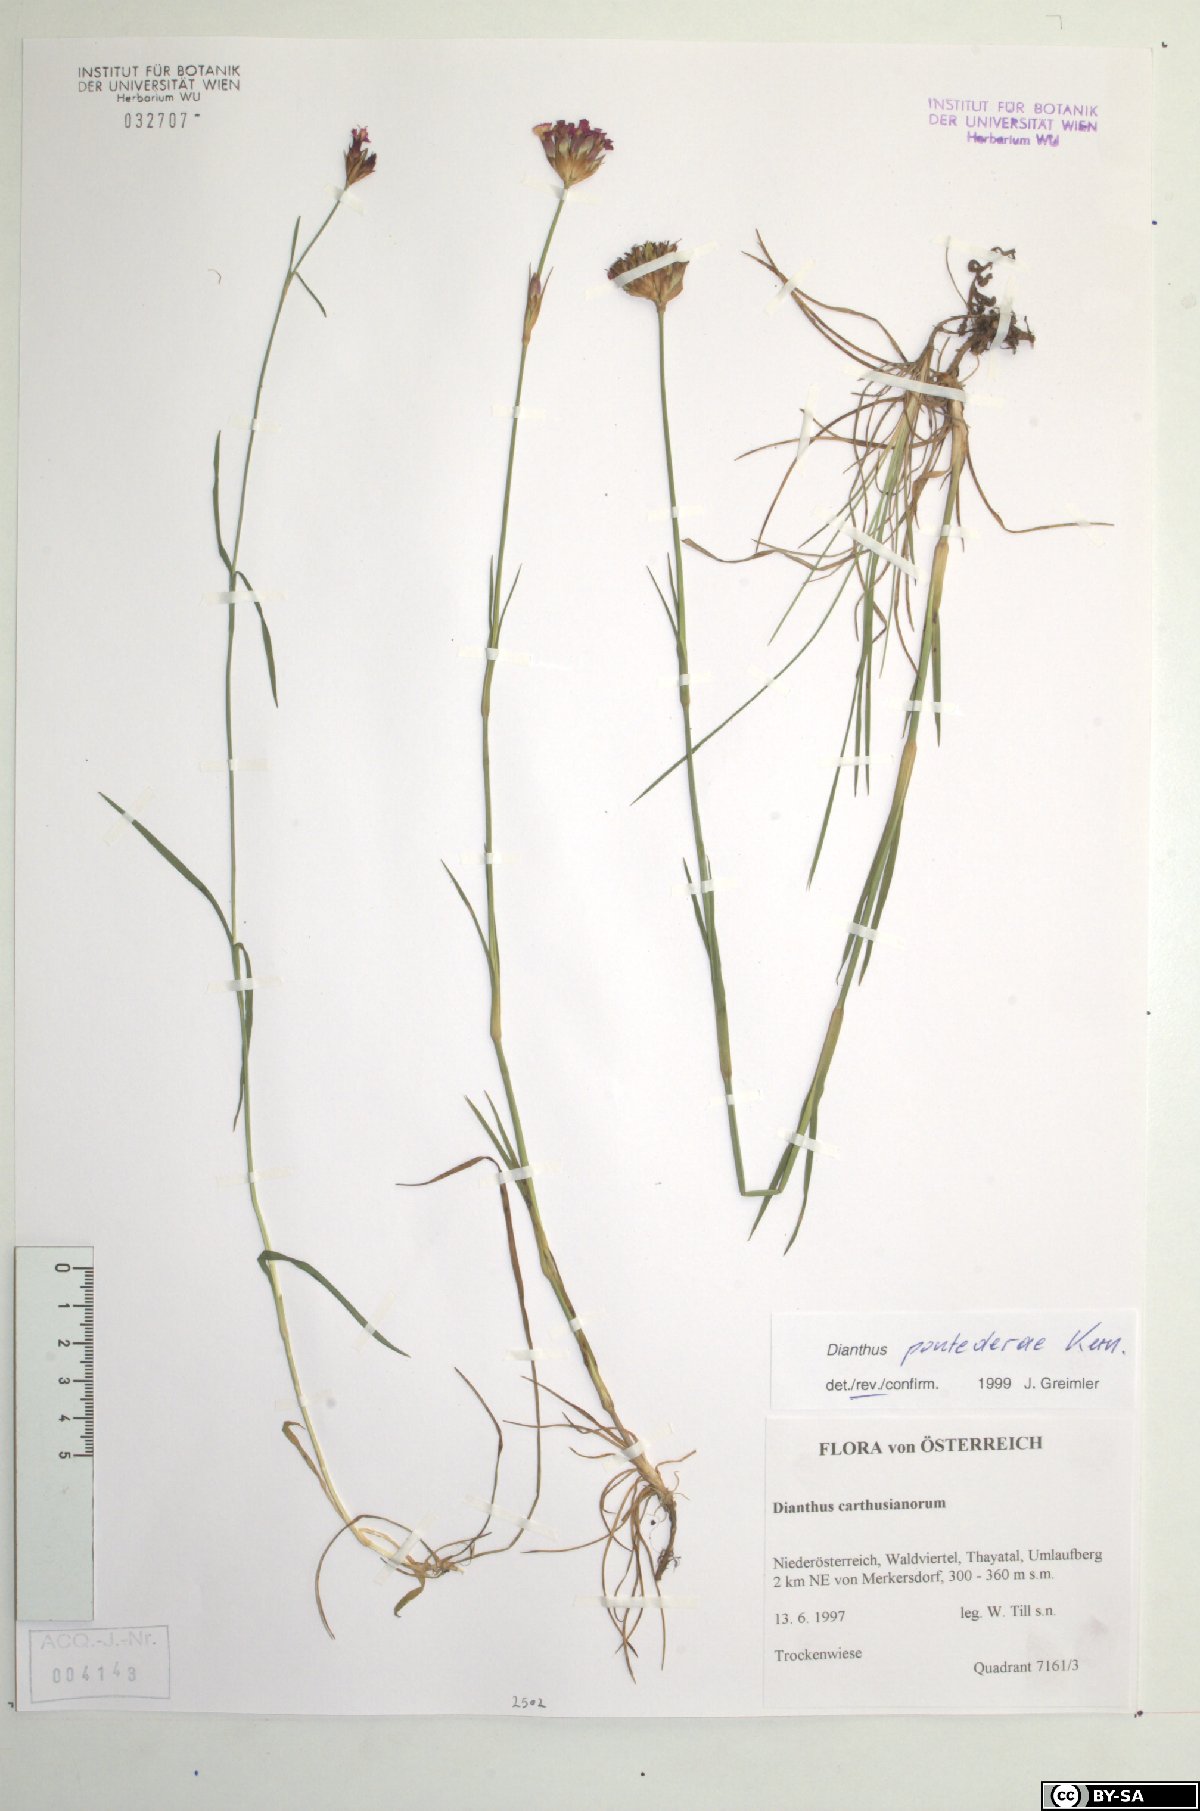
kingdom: Plantae
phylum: Tracheophyta
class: Magnoliopsida
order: Caryophyllales
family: Caryophyllaceae
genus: Dianthus
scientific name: Dianthus pontederae
